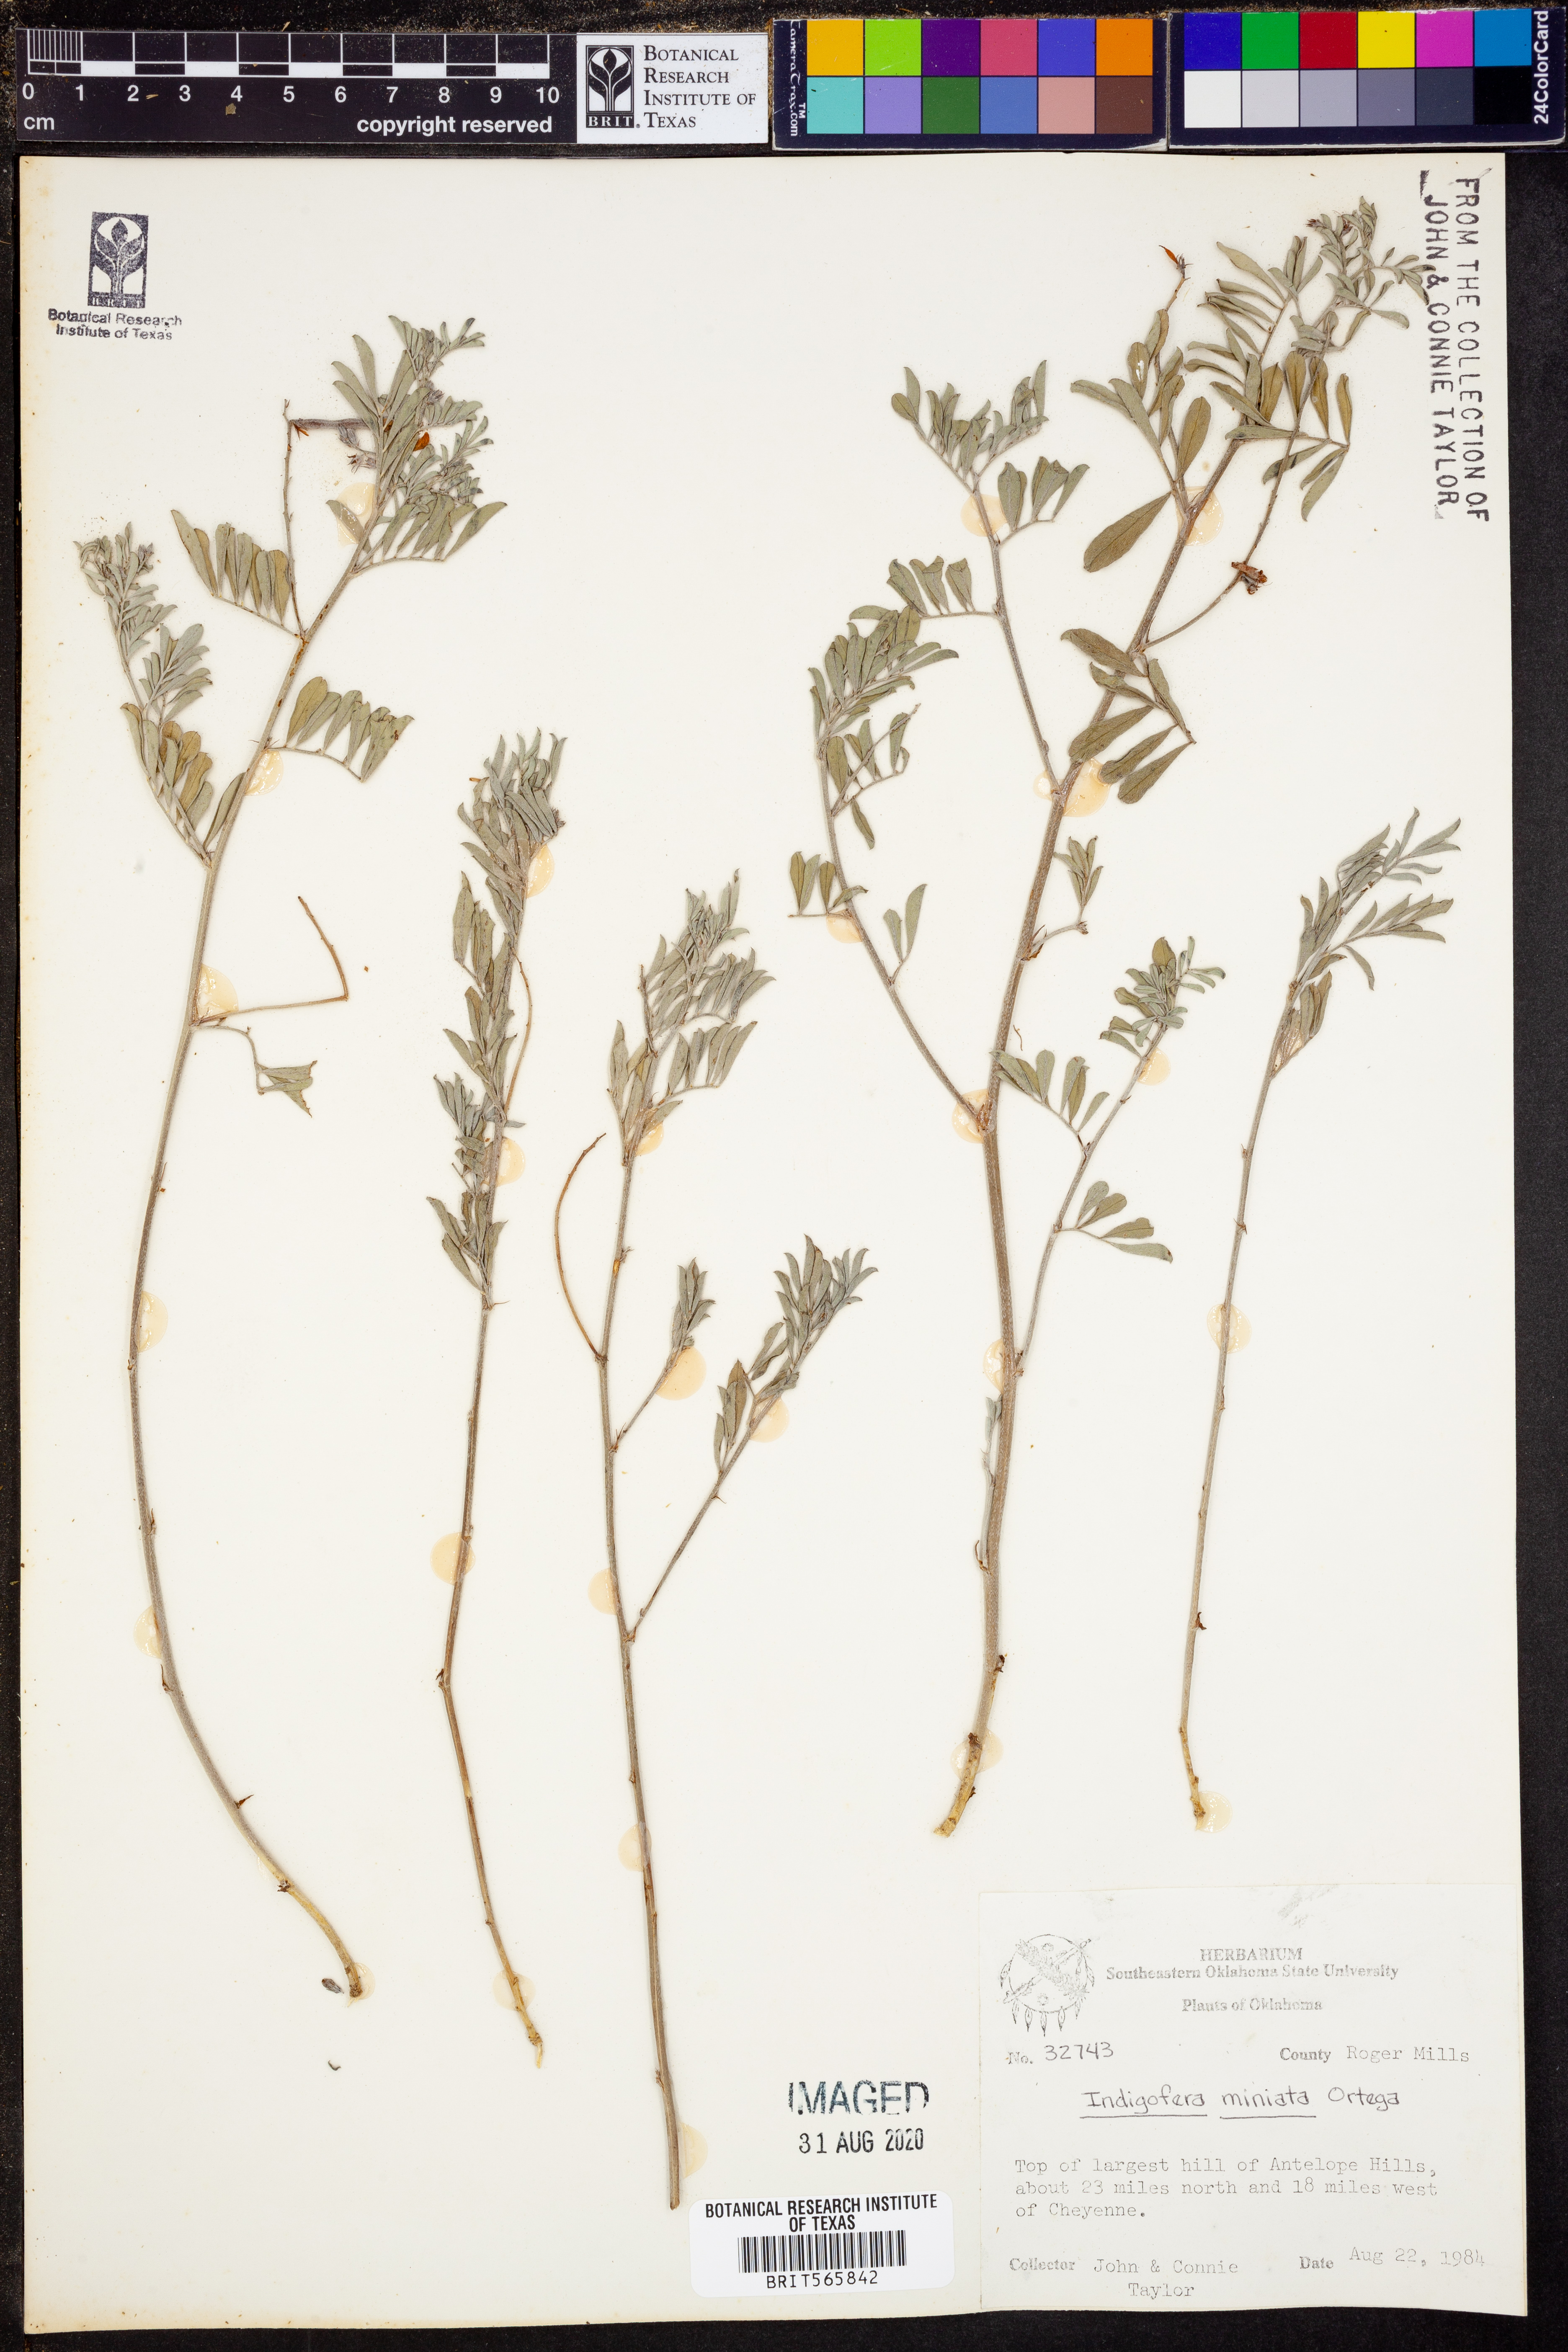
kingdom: Plantae
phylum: Tracheophyta
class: Magnoliopsida
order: Fabales
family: Fabaceae
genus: Indigofera
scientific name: Indigofera miniata
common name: Coast indigo
